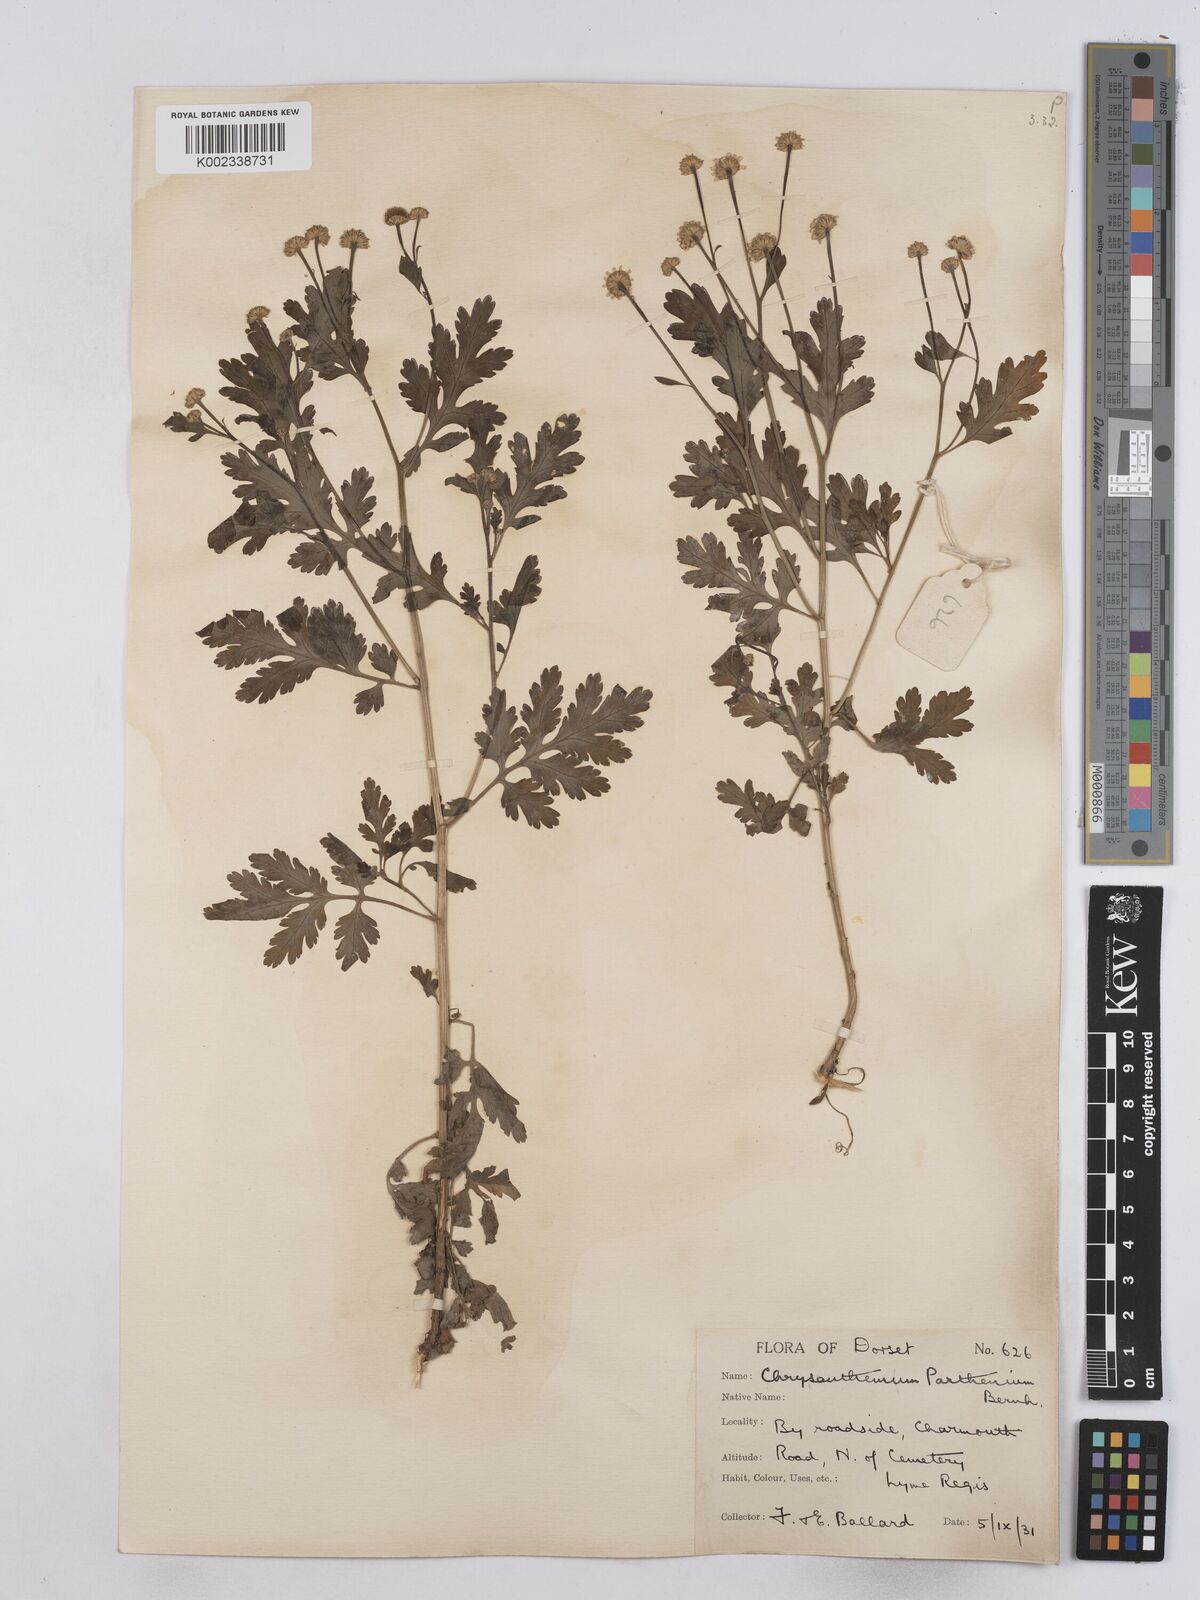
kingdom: Plantae
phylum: Tracheophyta
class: Magnoliopsida
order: Asterales
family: Asteraceae
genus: Tanacetum
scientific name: Tanacetum parthenium
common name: Feverfew
